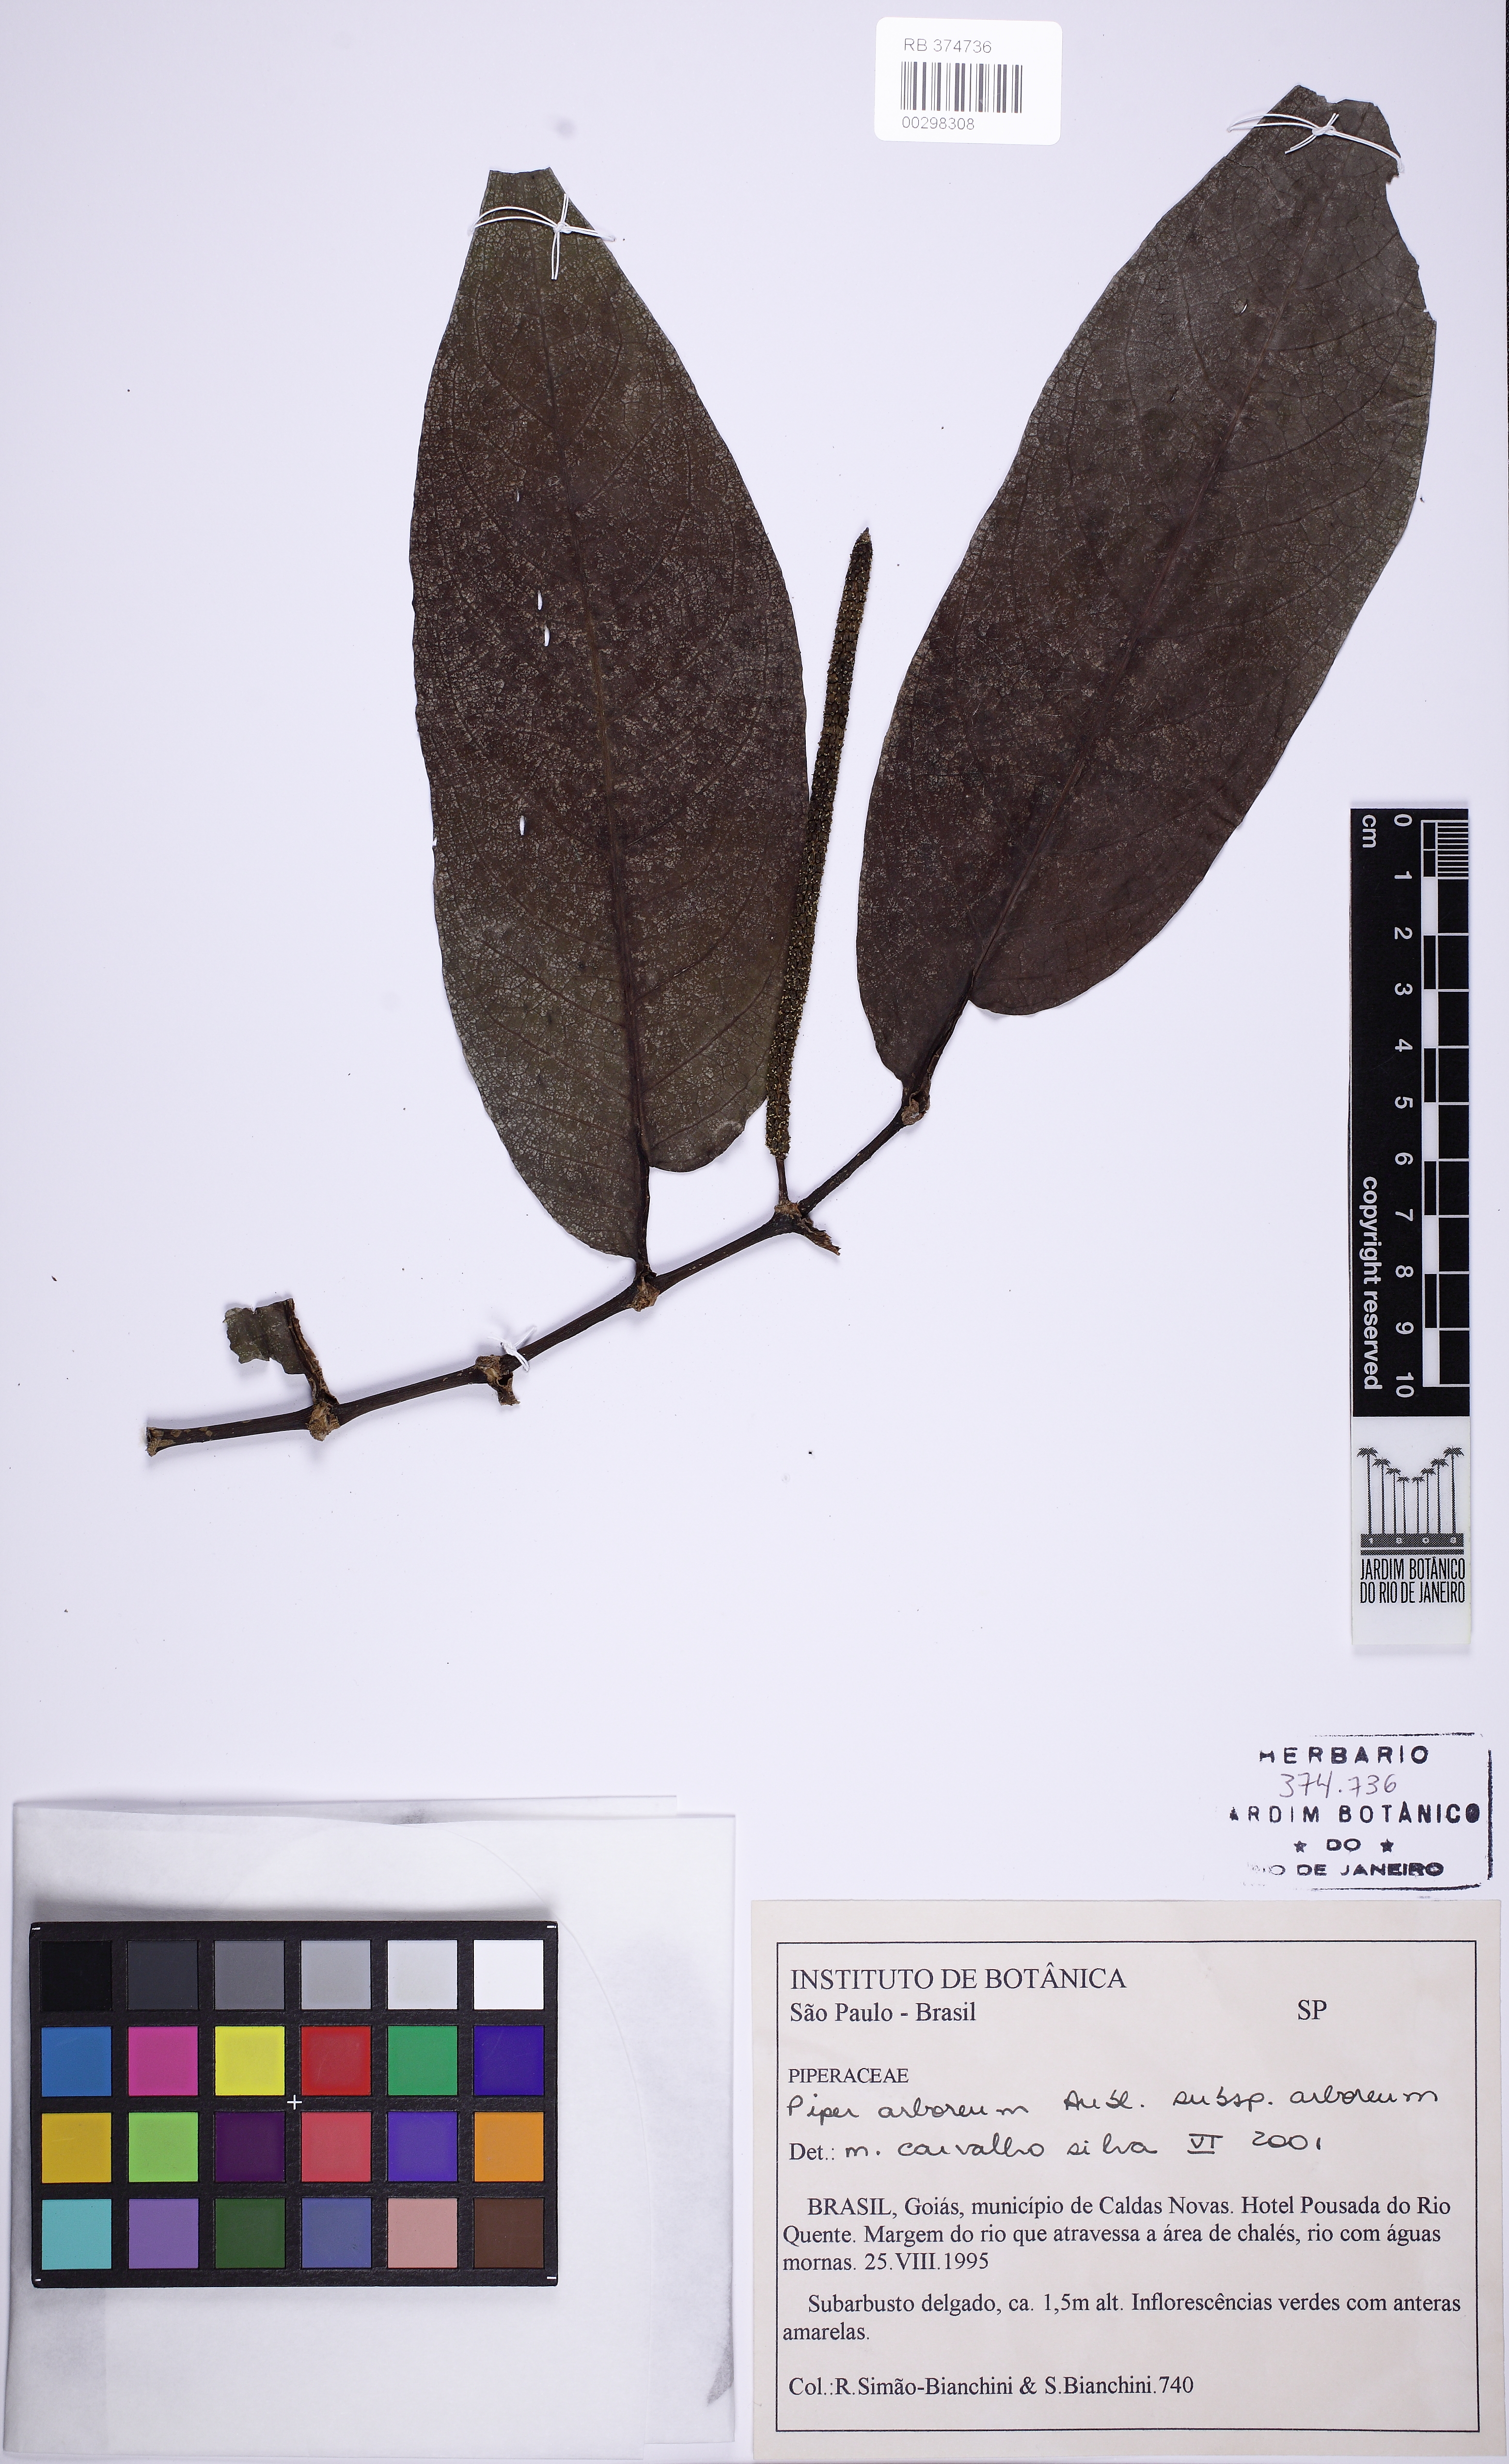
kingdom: Plantae
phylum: Tracheophyta
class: Magnoliopsida
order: Piperales
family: Piperaceae
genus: Piper
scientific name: Piper arboreum
